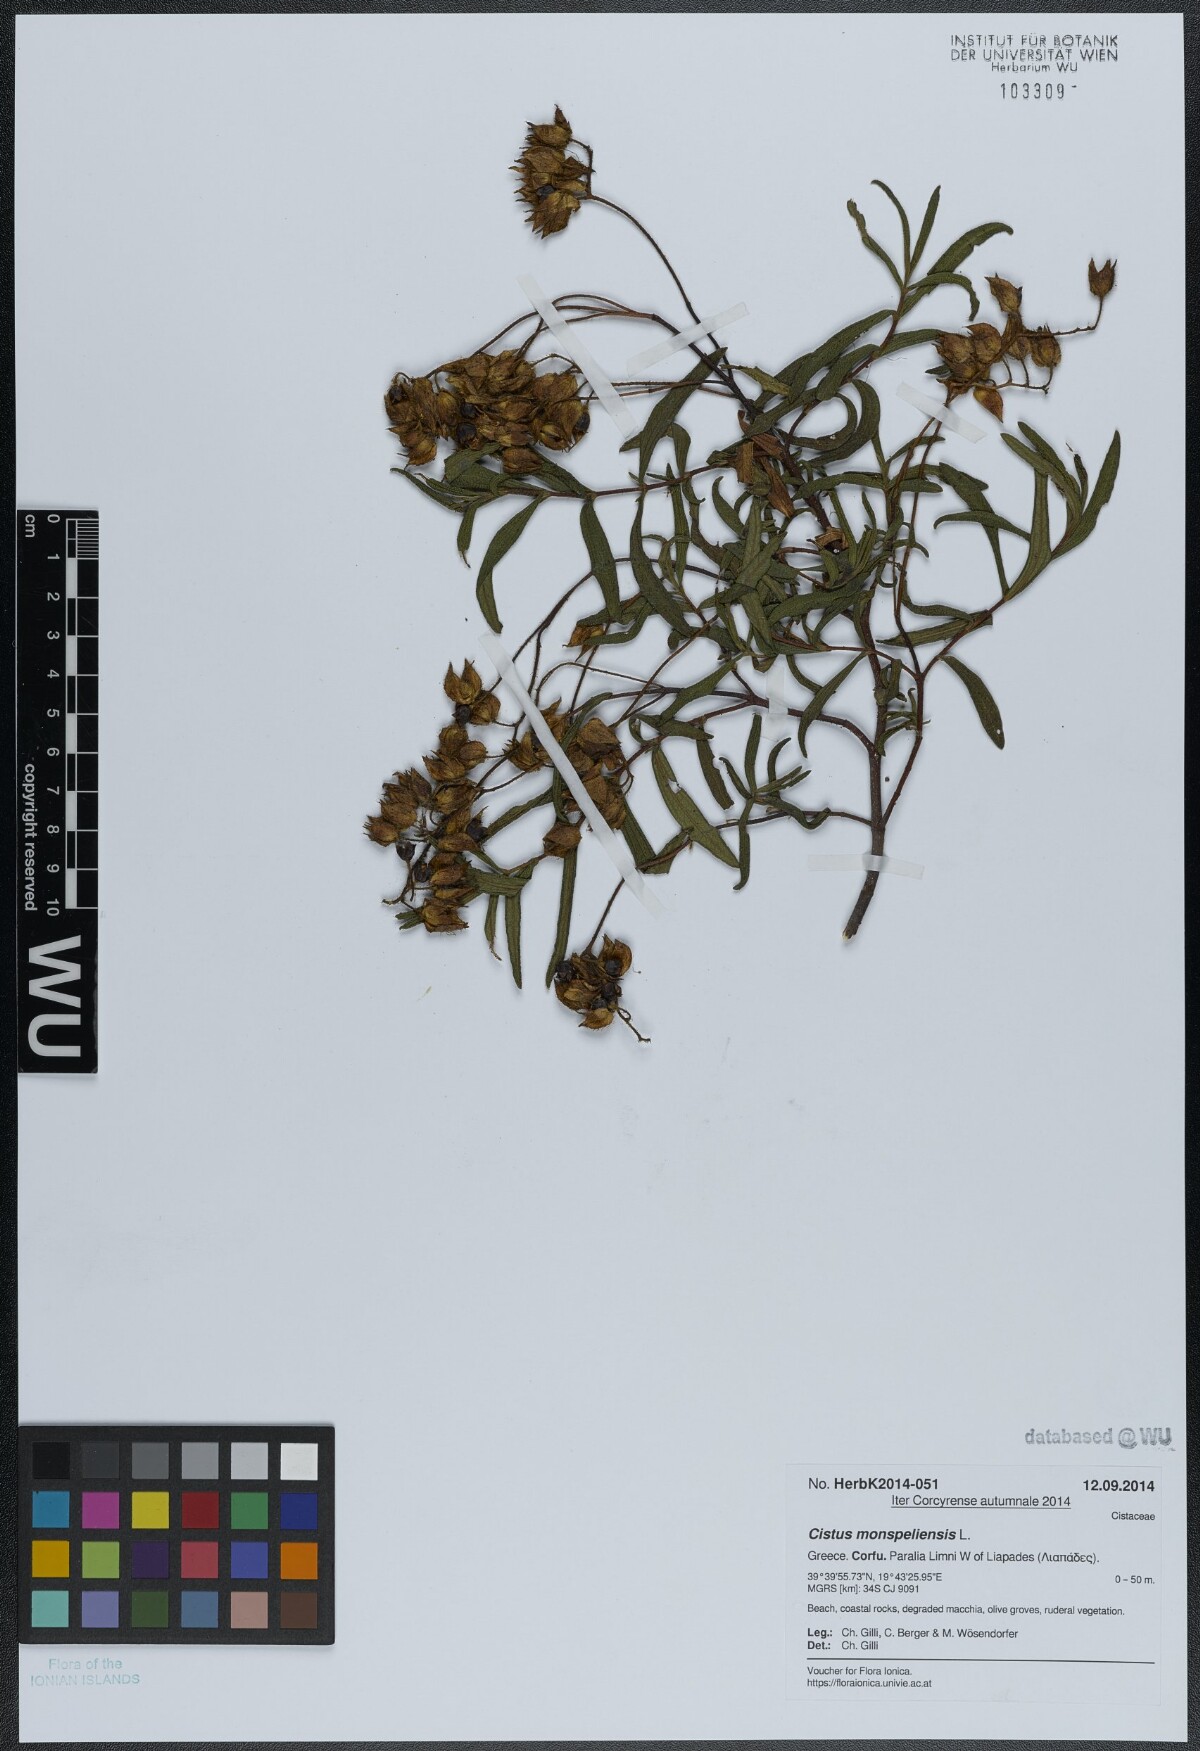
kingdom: Plantae
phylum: Tracheophyta
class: Magnoliopsida
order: Malvales
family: Cistaceae
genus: Cistus
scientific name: Cistus monspeliensis
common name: Montpelier cistus
